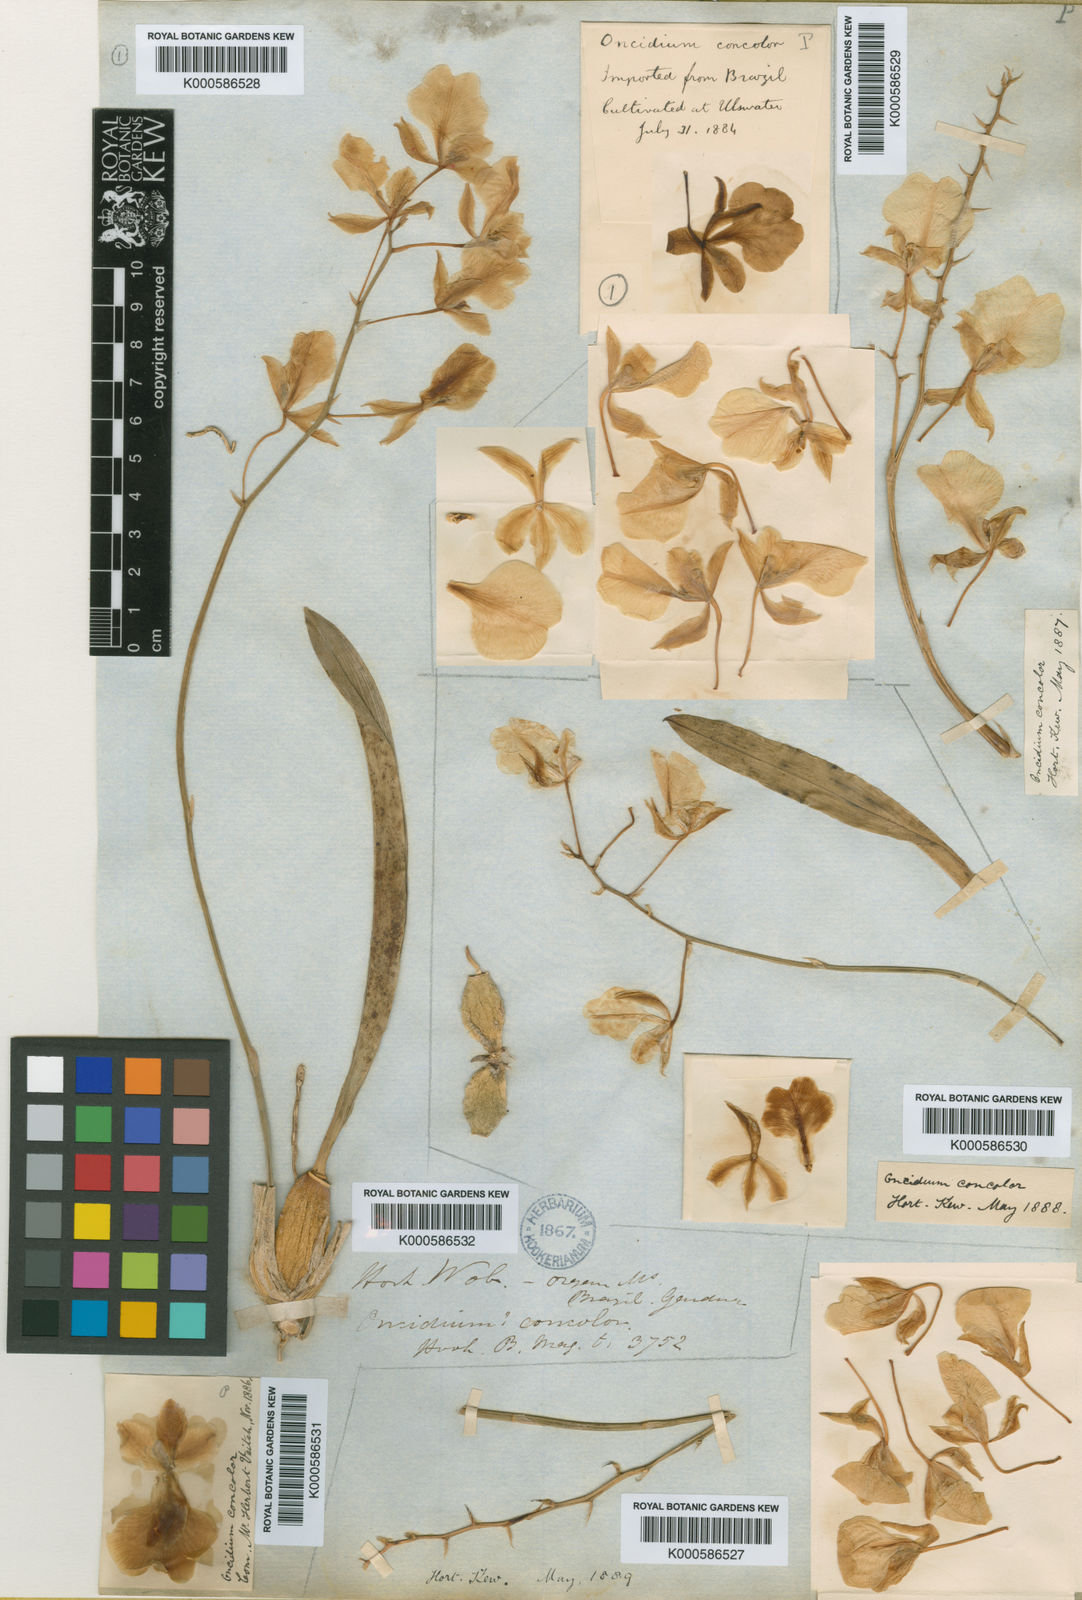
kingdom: Plantae
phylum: Tracheophyta
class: Liliopsida
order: Asparagales
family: Orchidaceae
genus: Gomesa
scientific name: Gomesa concolor
